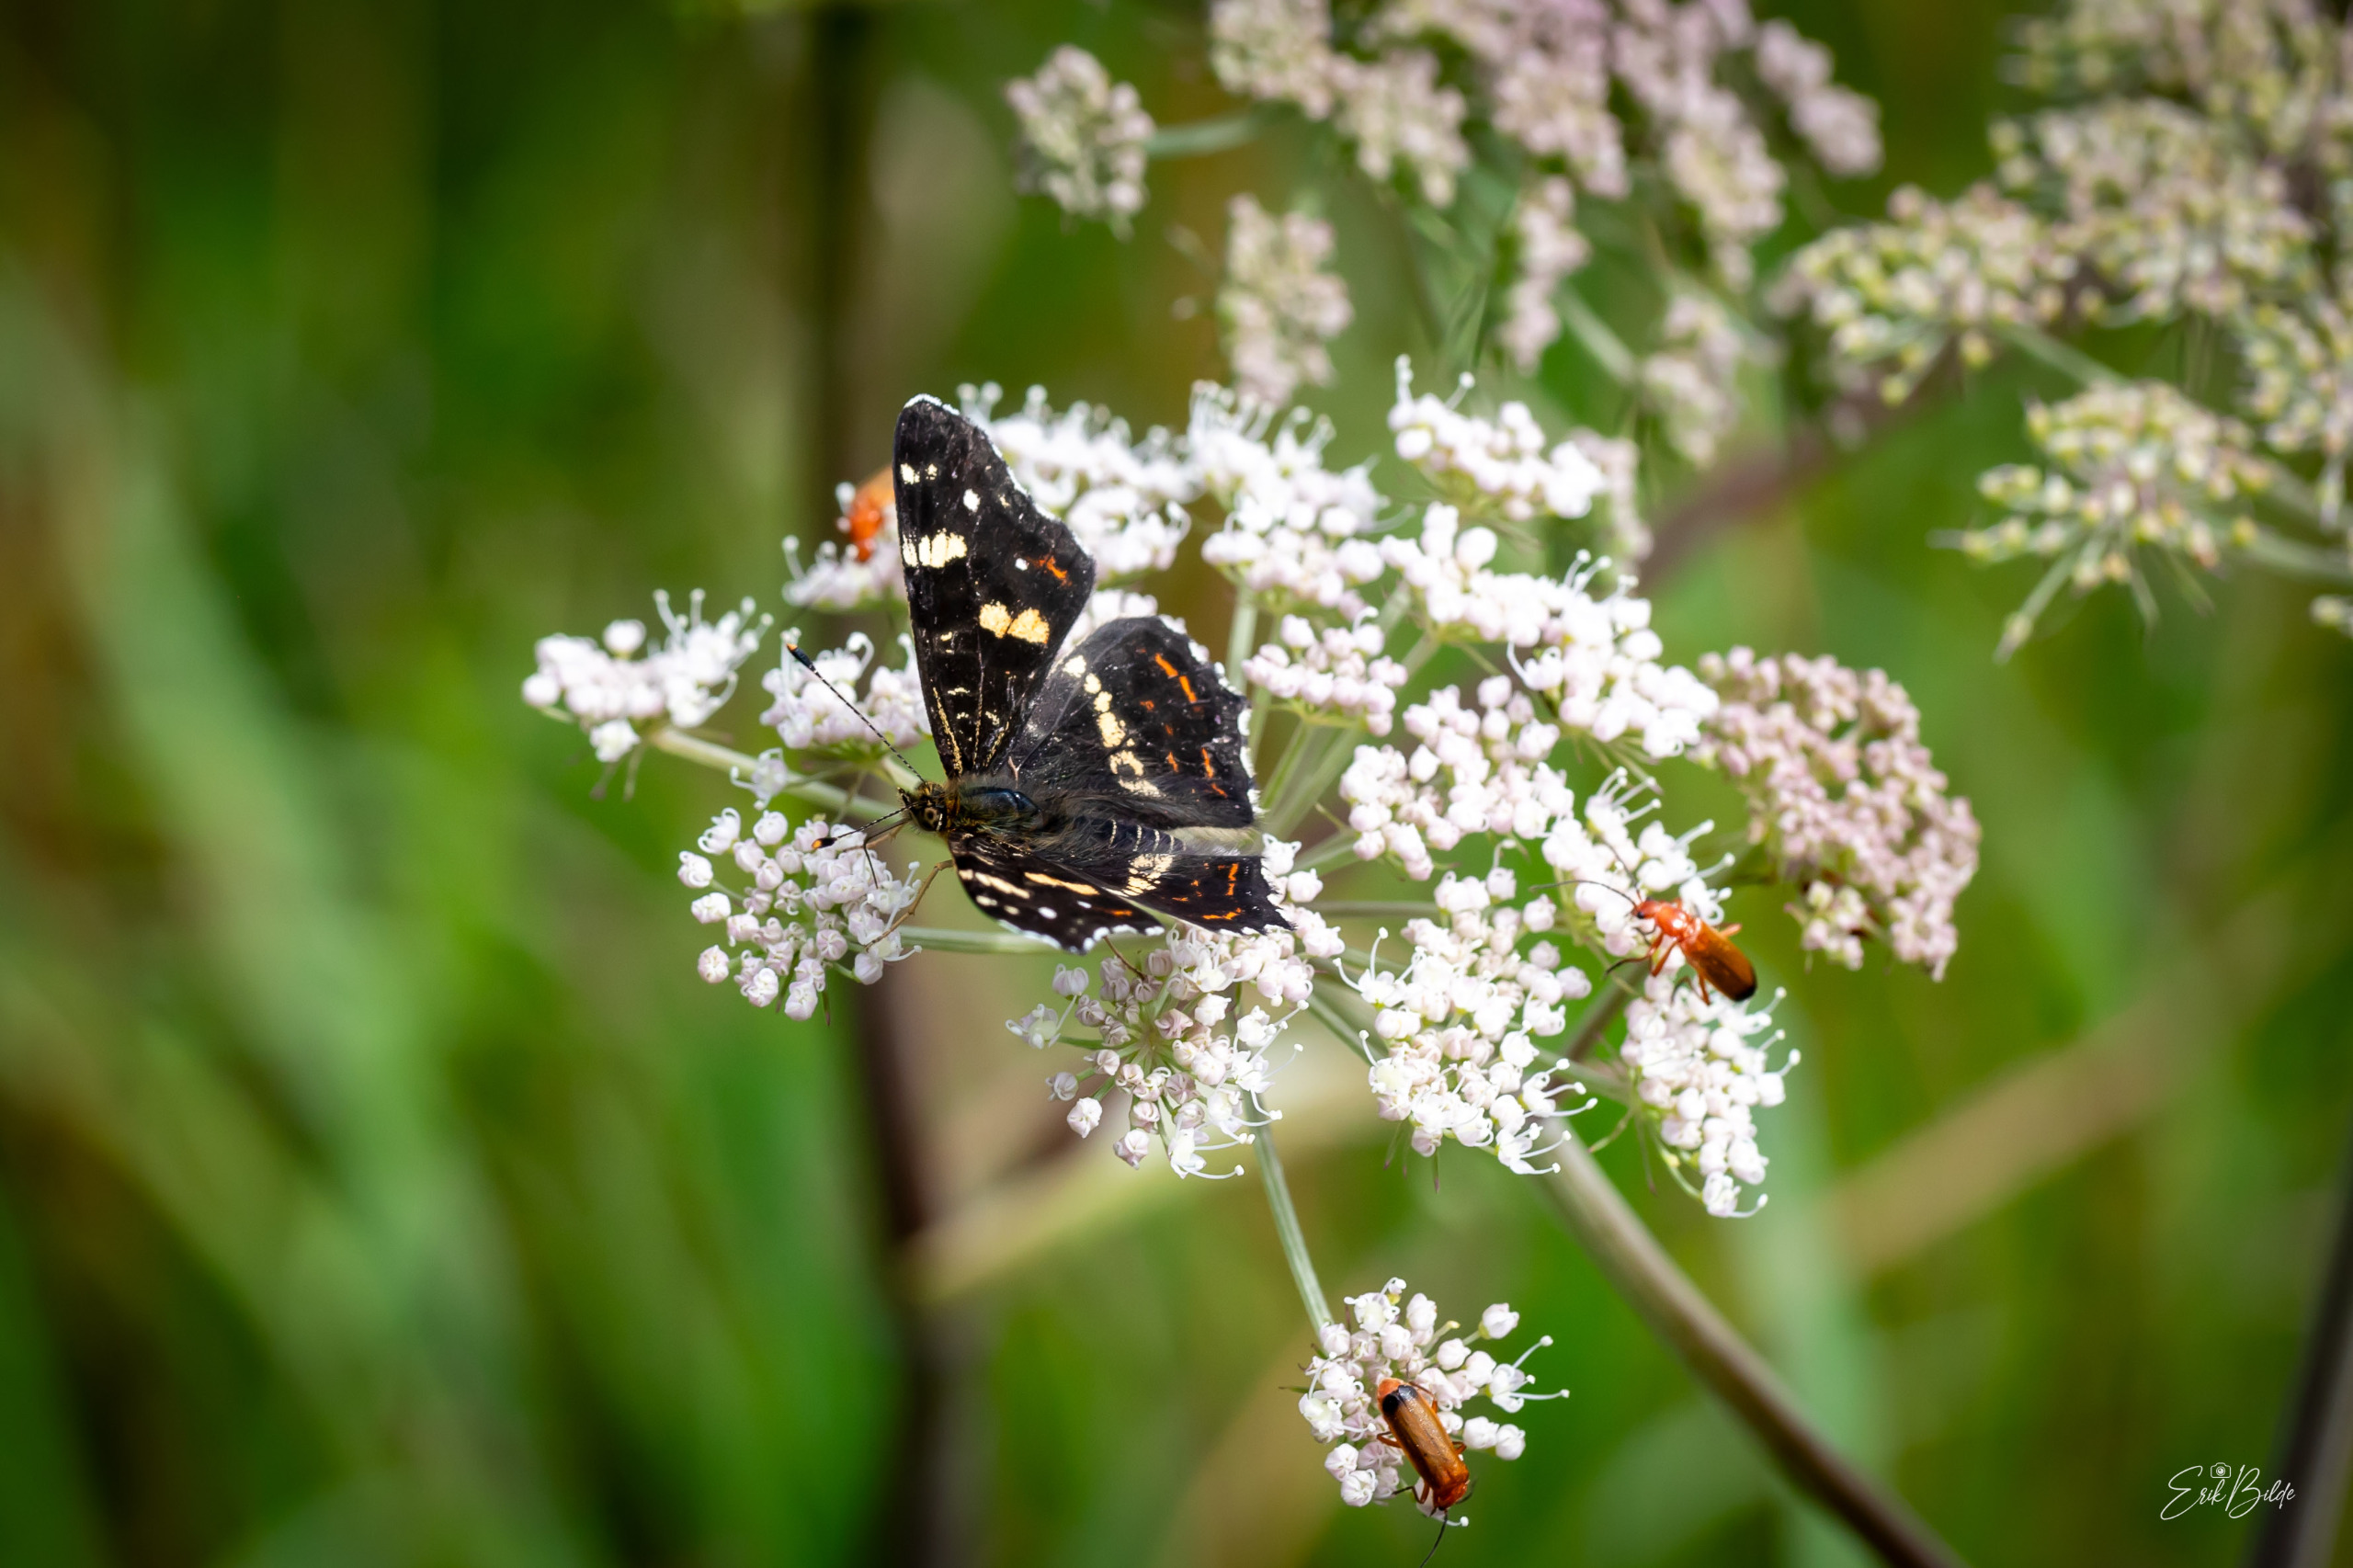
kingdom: Animalia
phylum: Arthropoda
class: Insecta
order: Lepidoptera
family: Nymphalidae
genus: Araschnia
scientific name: Araschnia levana
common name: Nældesommerfugl
